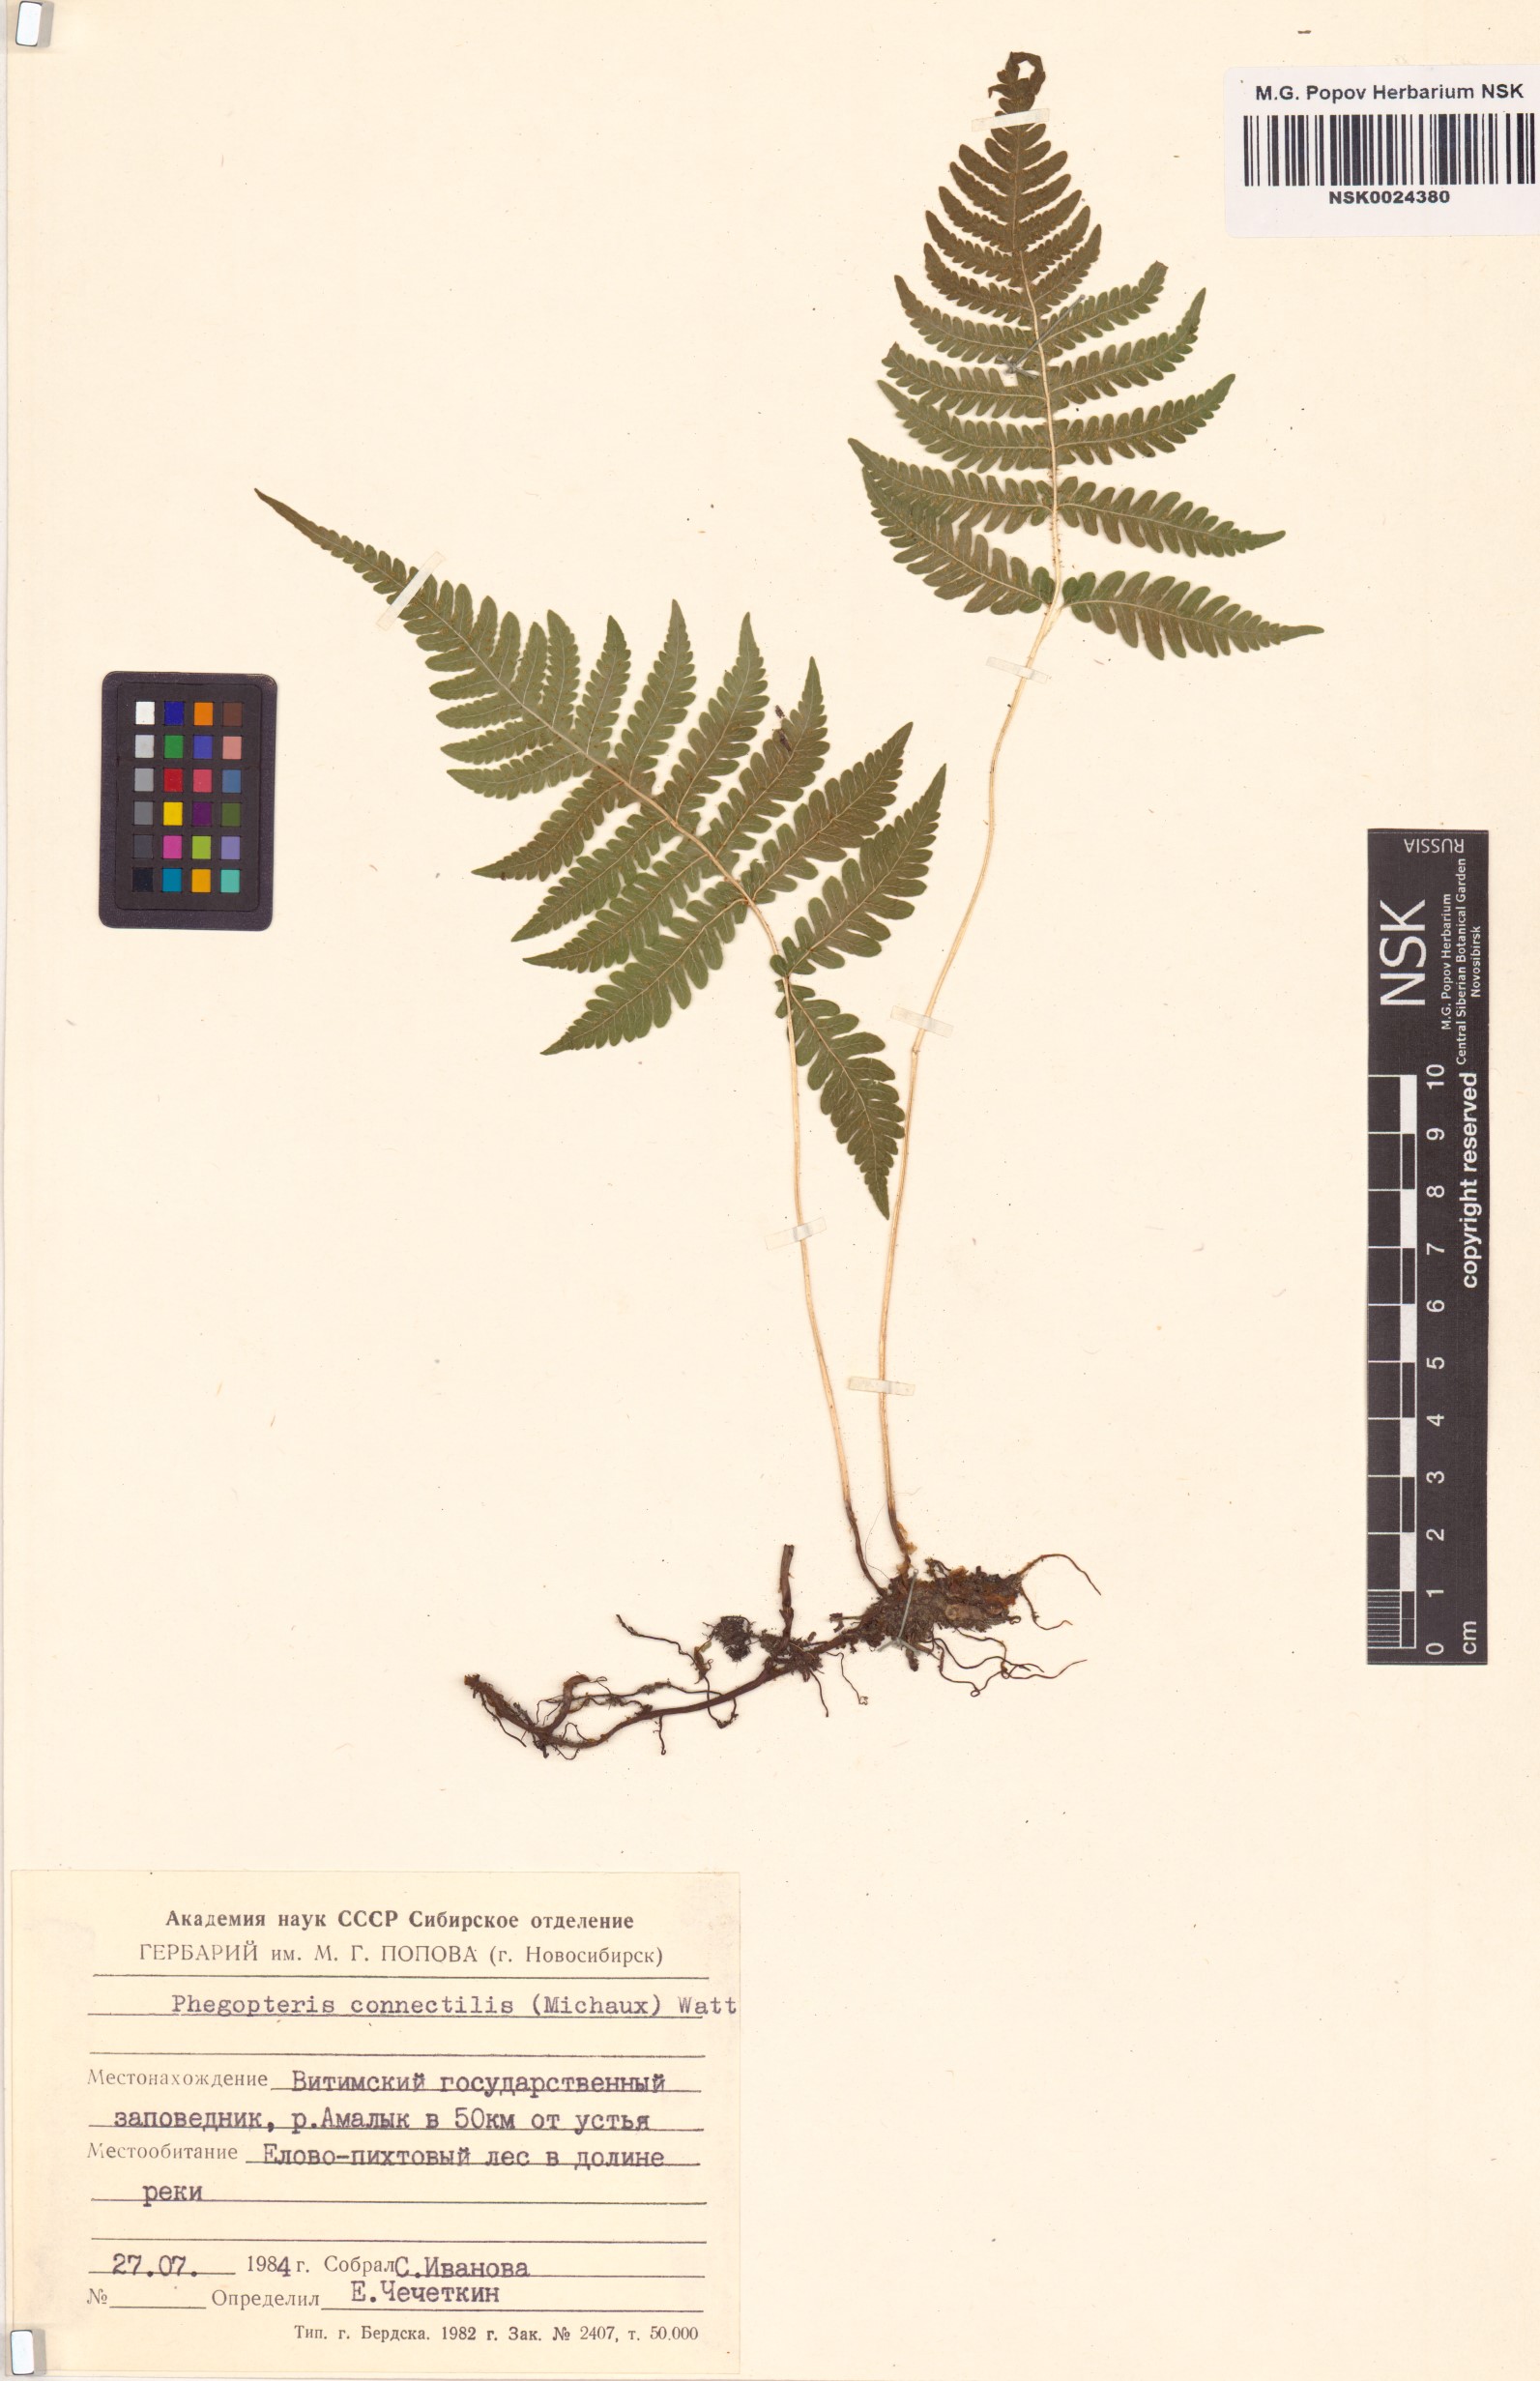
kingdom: Plantae
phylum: Tracheophyta
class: Polypodiopsida
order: Polypodiales
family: Thelypteridaceae
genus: Phegopteris
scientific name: Phegopteris connectilis
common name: Beech fern
